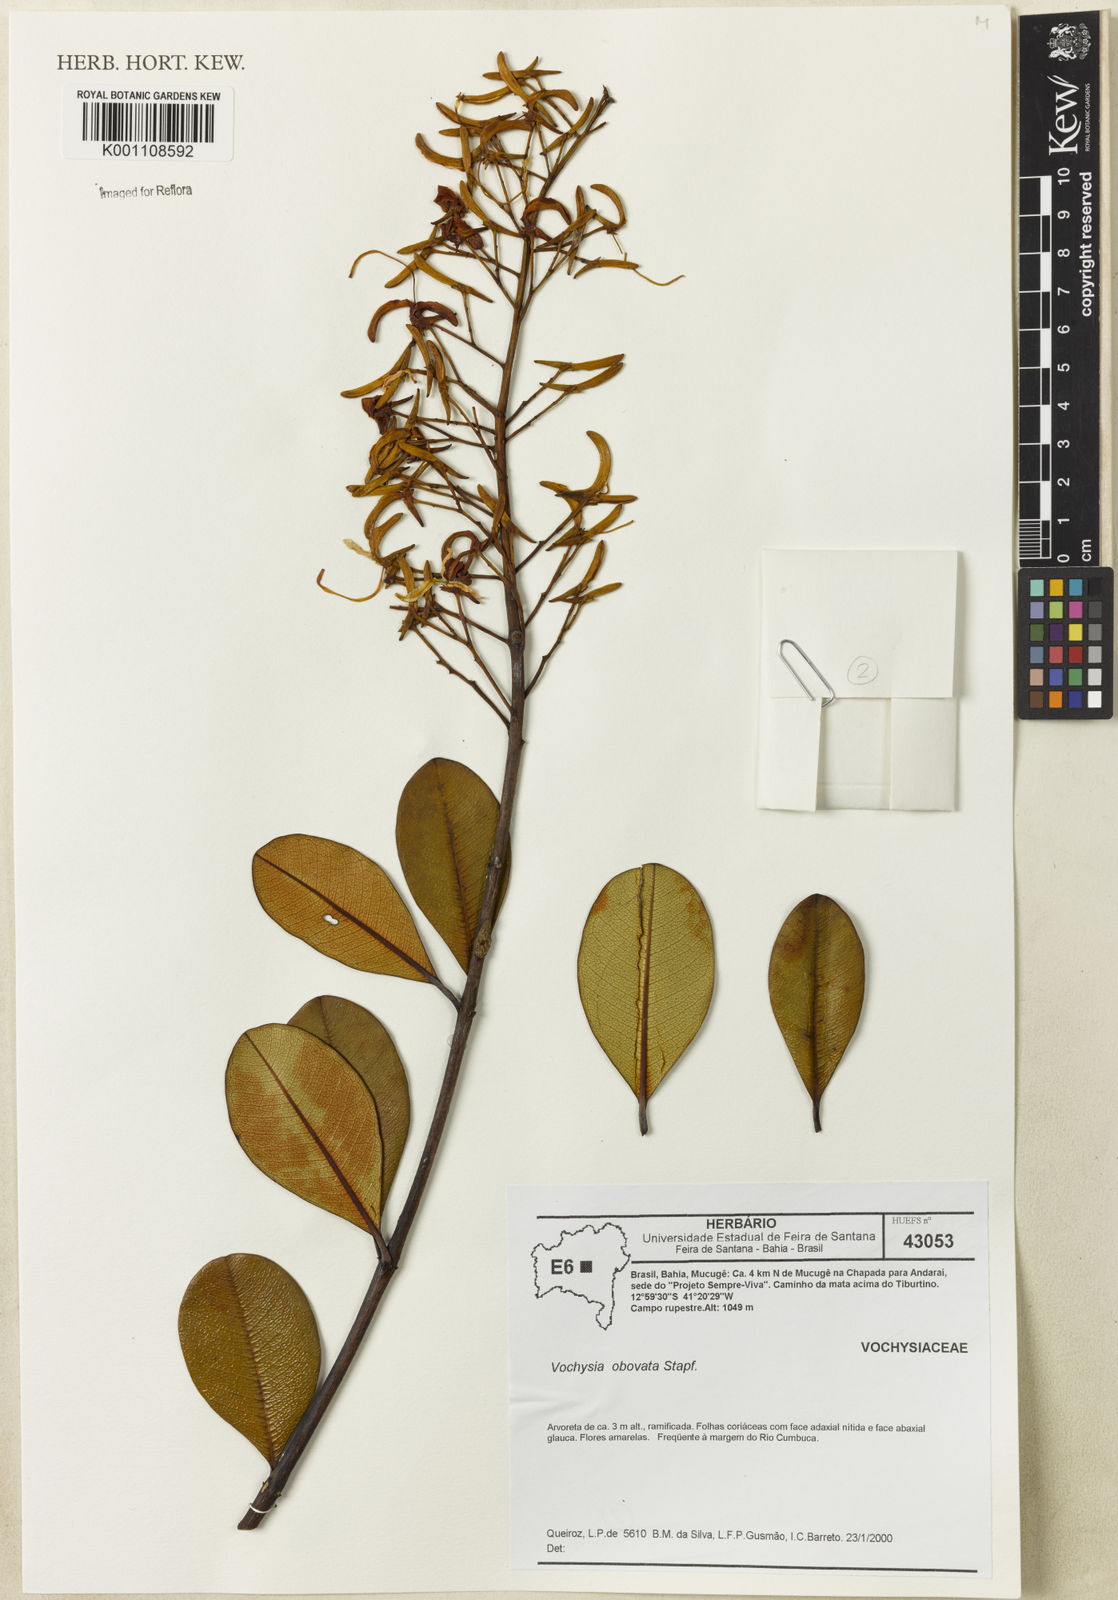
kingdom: Plantae
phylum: Tracheophyta
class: Magnoliopsida
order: Myrtales
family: Vochysiaceae
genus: Vochysia
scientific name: Vochysia obovata
